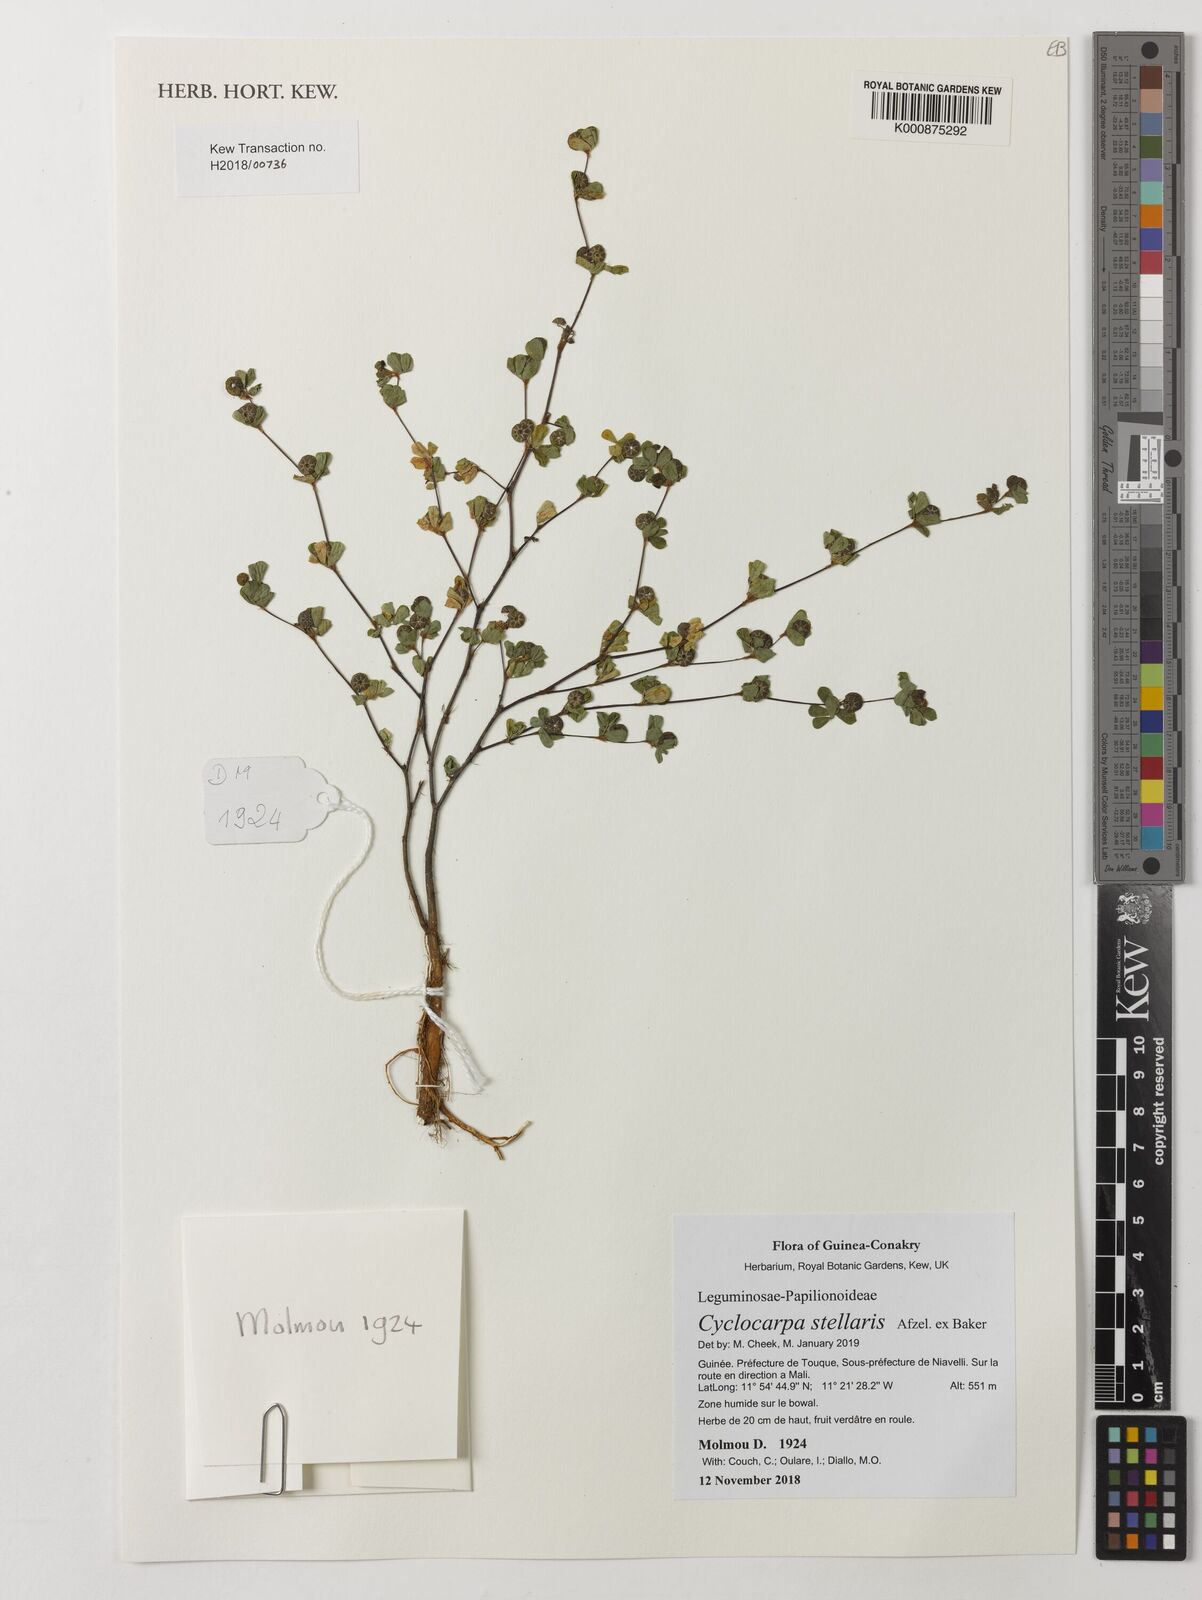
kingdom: Plantae
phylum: Tracheophyta
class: Magnoliopsida
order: Fabales
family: Fabaceae
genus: Cyclocarpa
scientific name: Cyclocarpa stellaris
